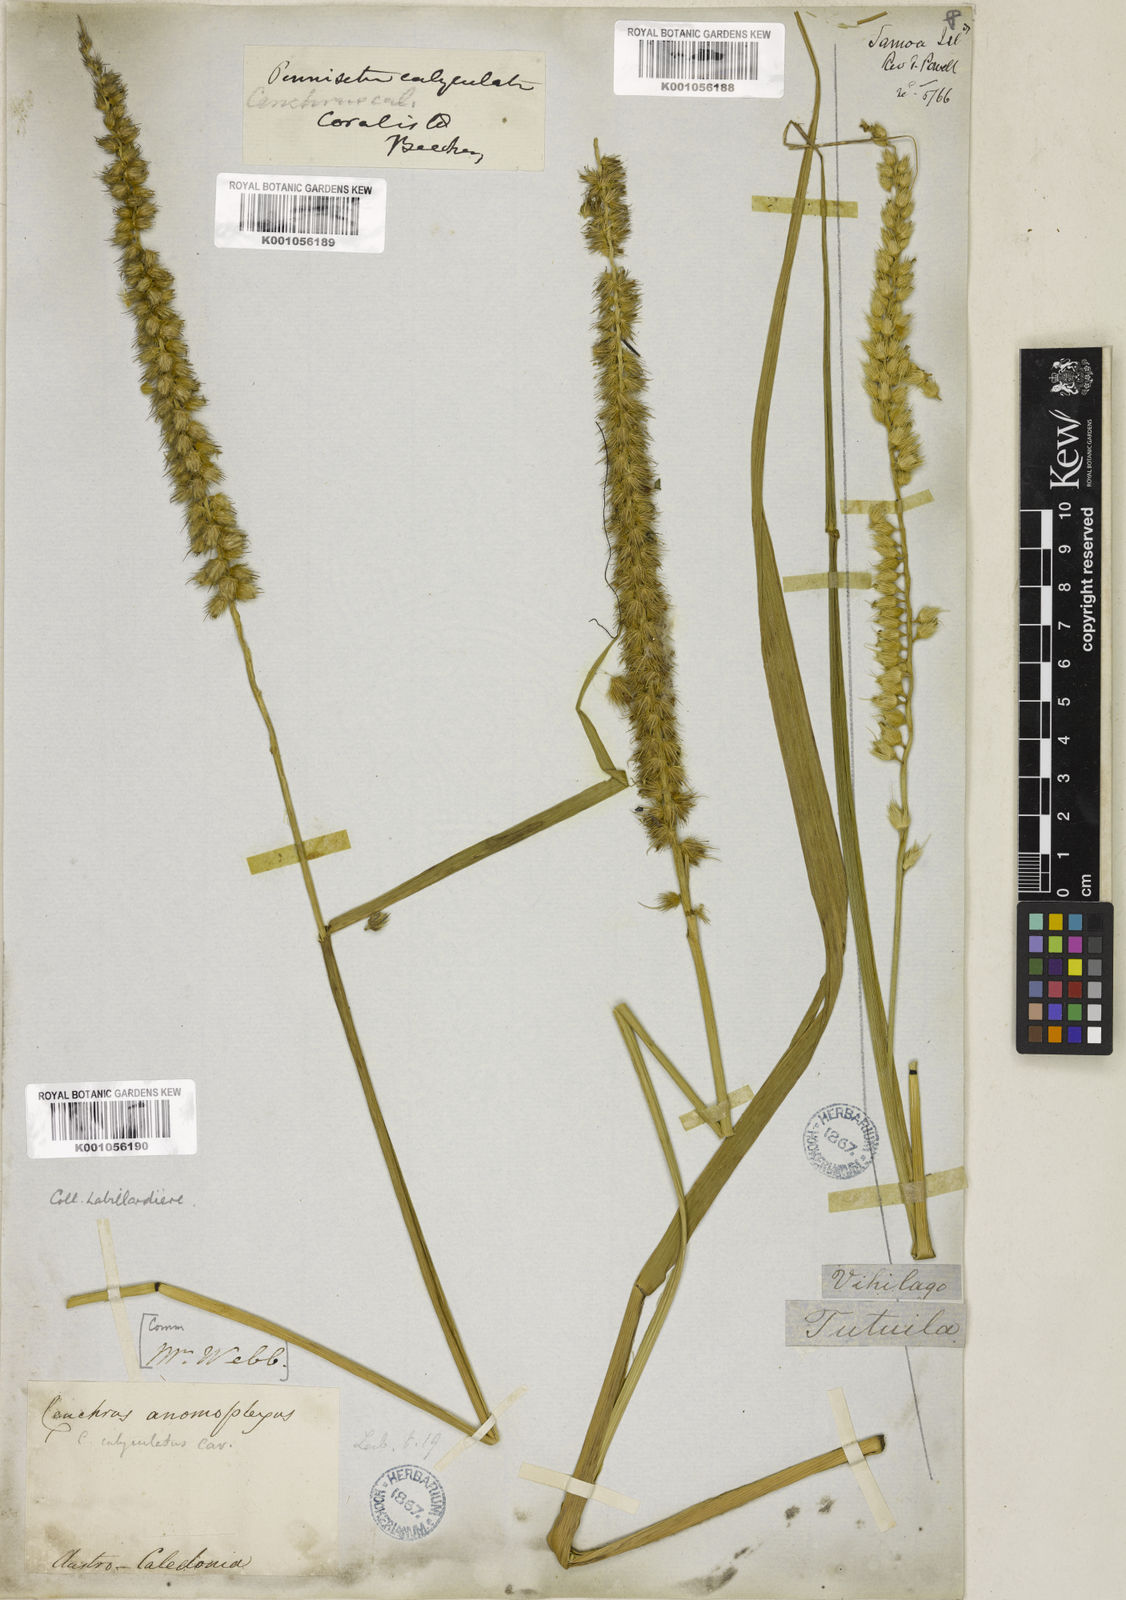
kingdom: Plantae
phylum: Tracheophyta
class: Liliopsida
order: Poales
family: Poaceae
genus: Cenchrus
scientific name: Cenchrus caliculatus
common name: Large bur grass
